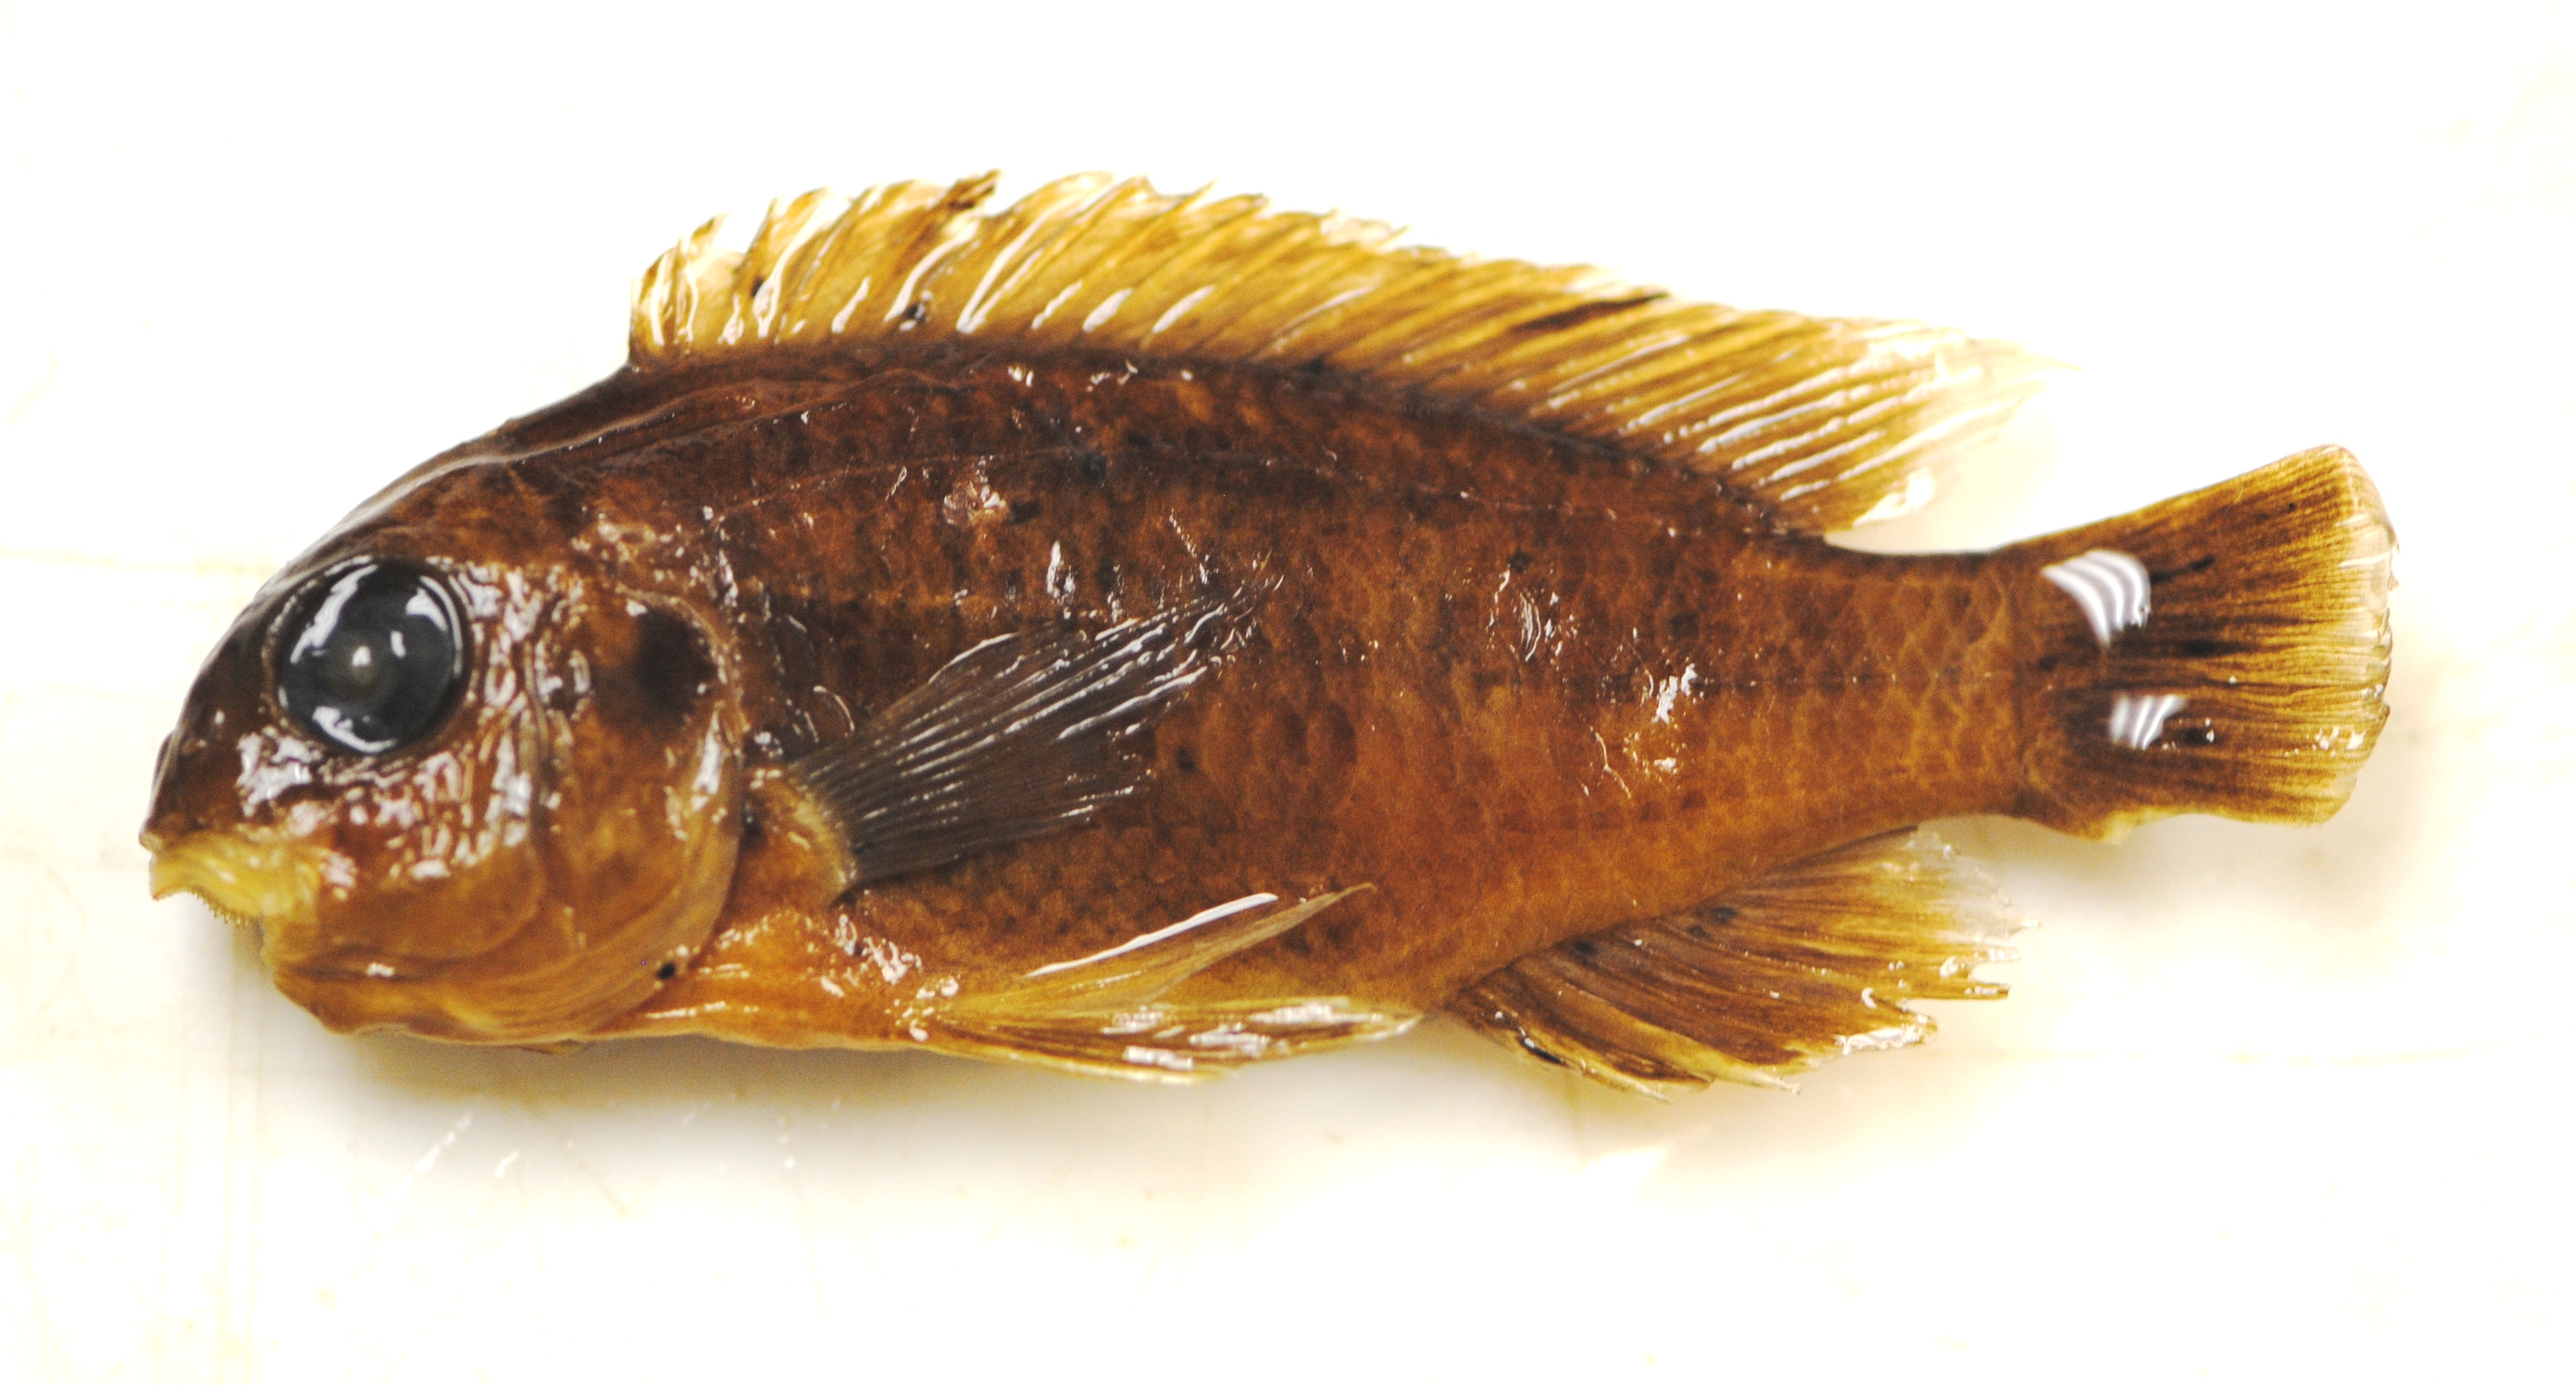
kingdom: Animalia
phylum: Chordata
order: Perciformes
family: Cichlidae
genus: Pseudosimochromis
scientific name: Pseudosimochromis margaretae
